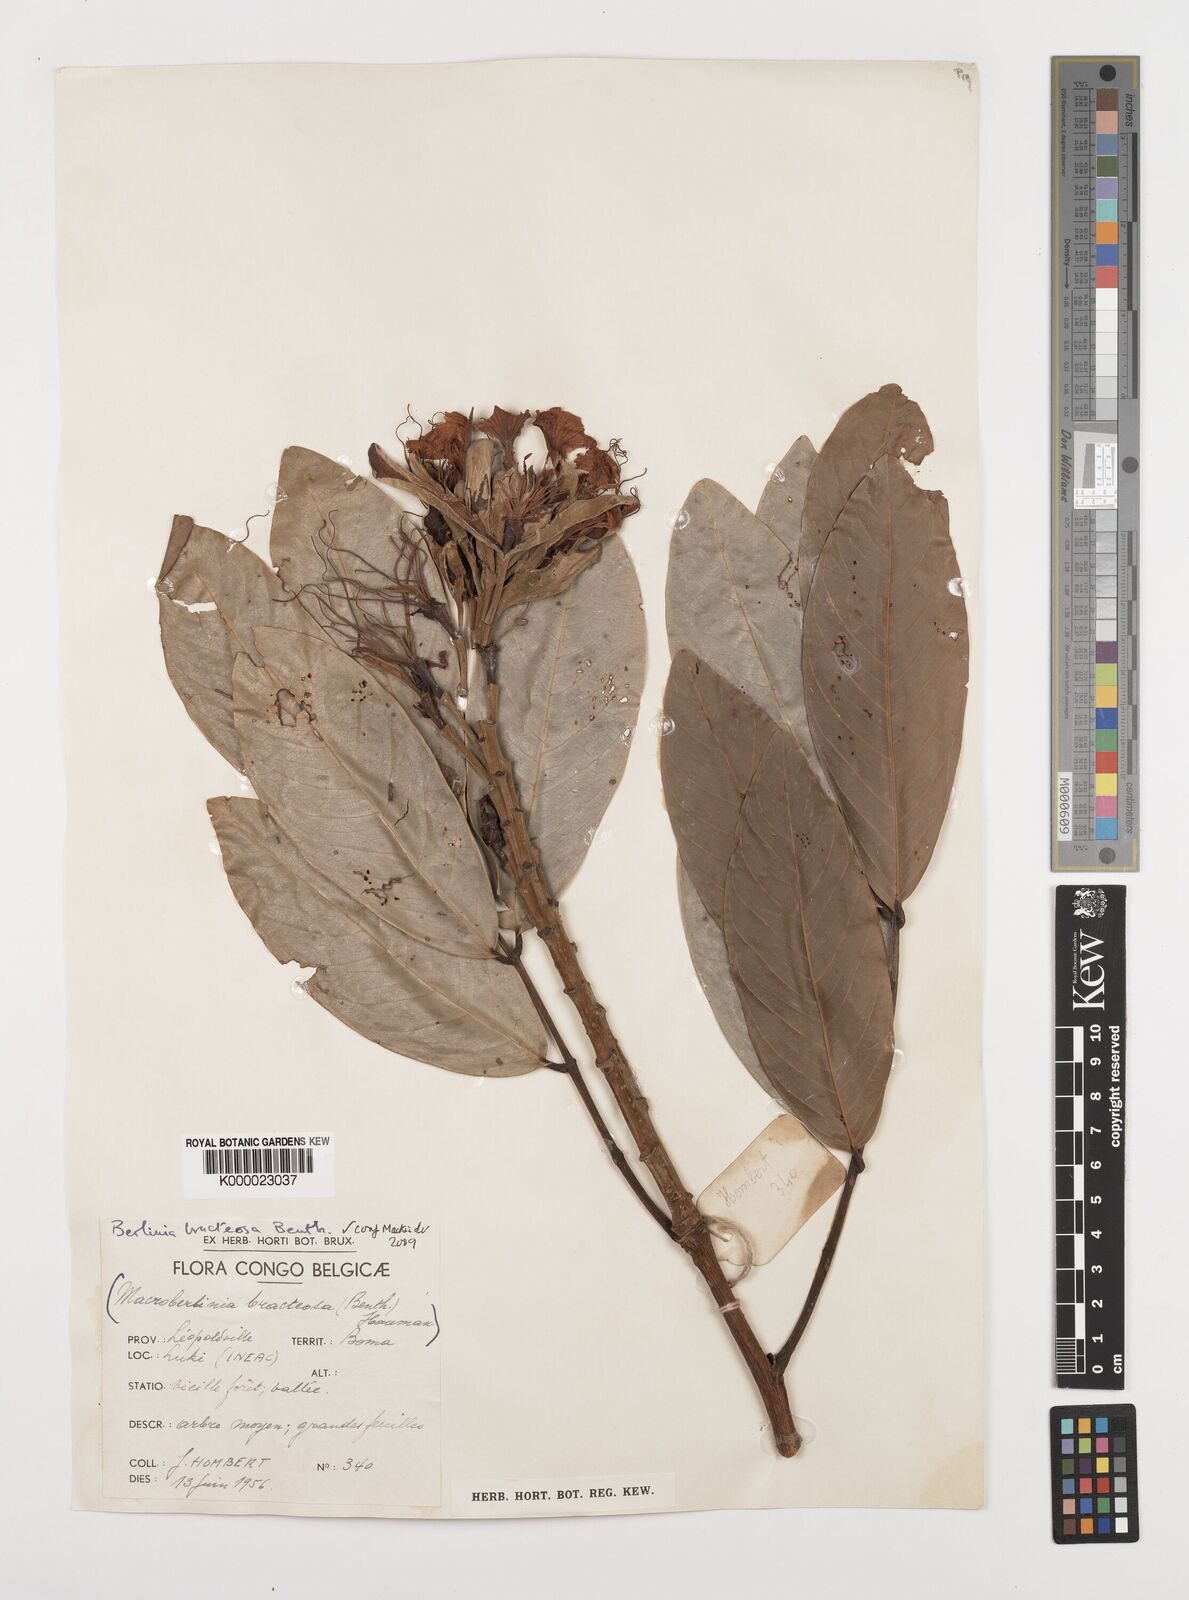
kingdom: Plantae
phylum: Tracheophyta
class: Magnoliopsida
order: Fabales
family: Fabaceae
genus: Berlinia
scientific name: Berlinia bracteosa
